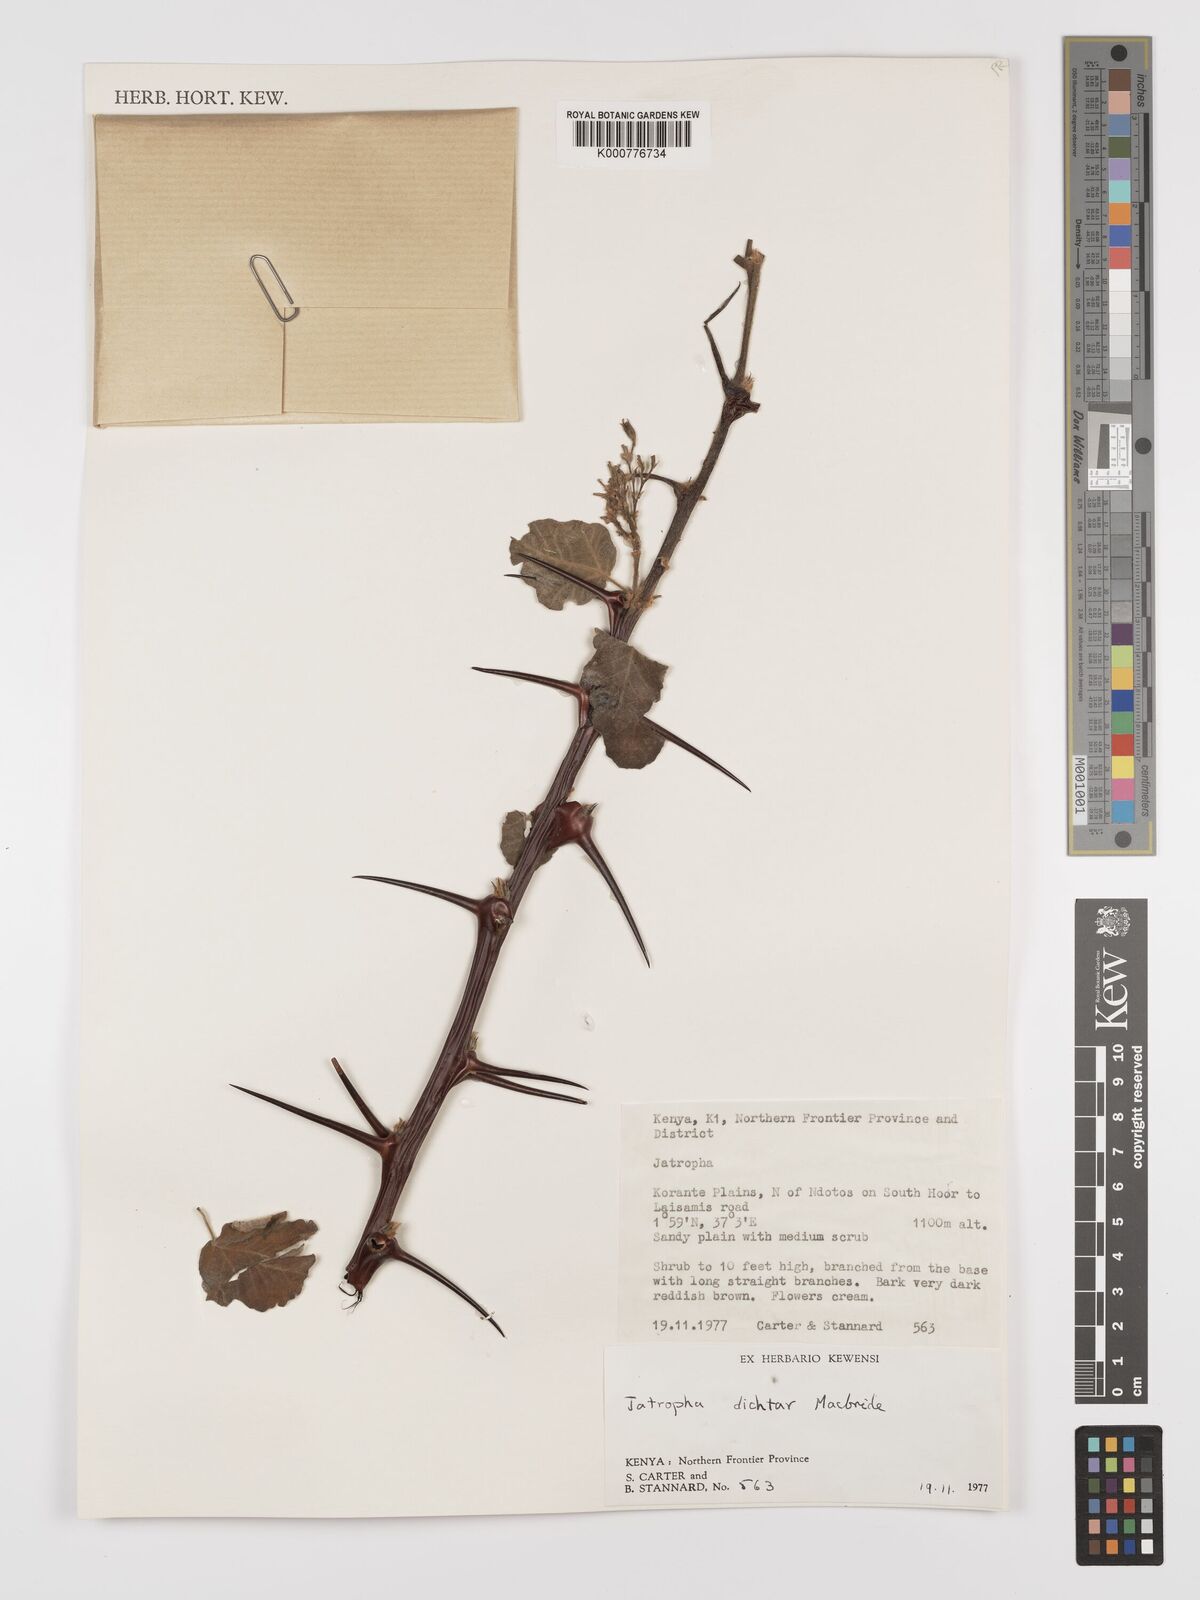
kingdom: Plantae
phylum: Tracheophyta
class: Magnoliopsida
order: Malpighiales
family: Euphorbiaceae
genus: Jatropha
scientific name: Jatropha dichtar
